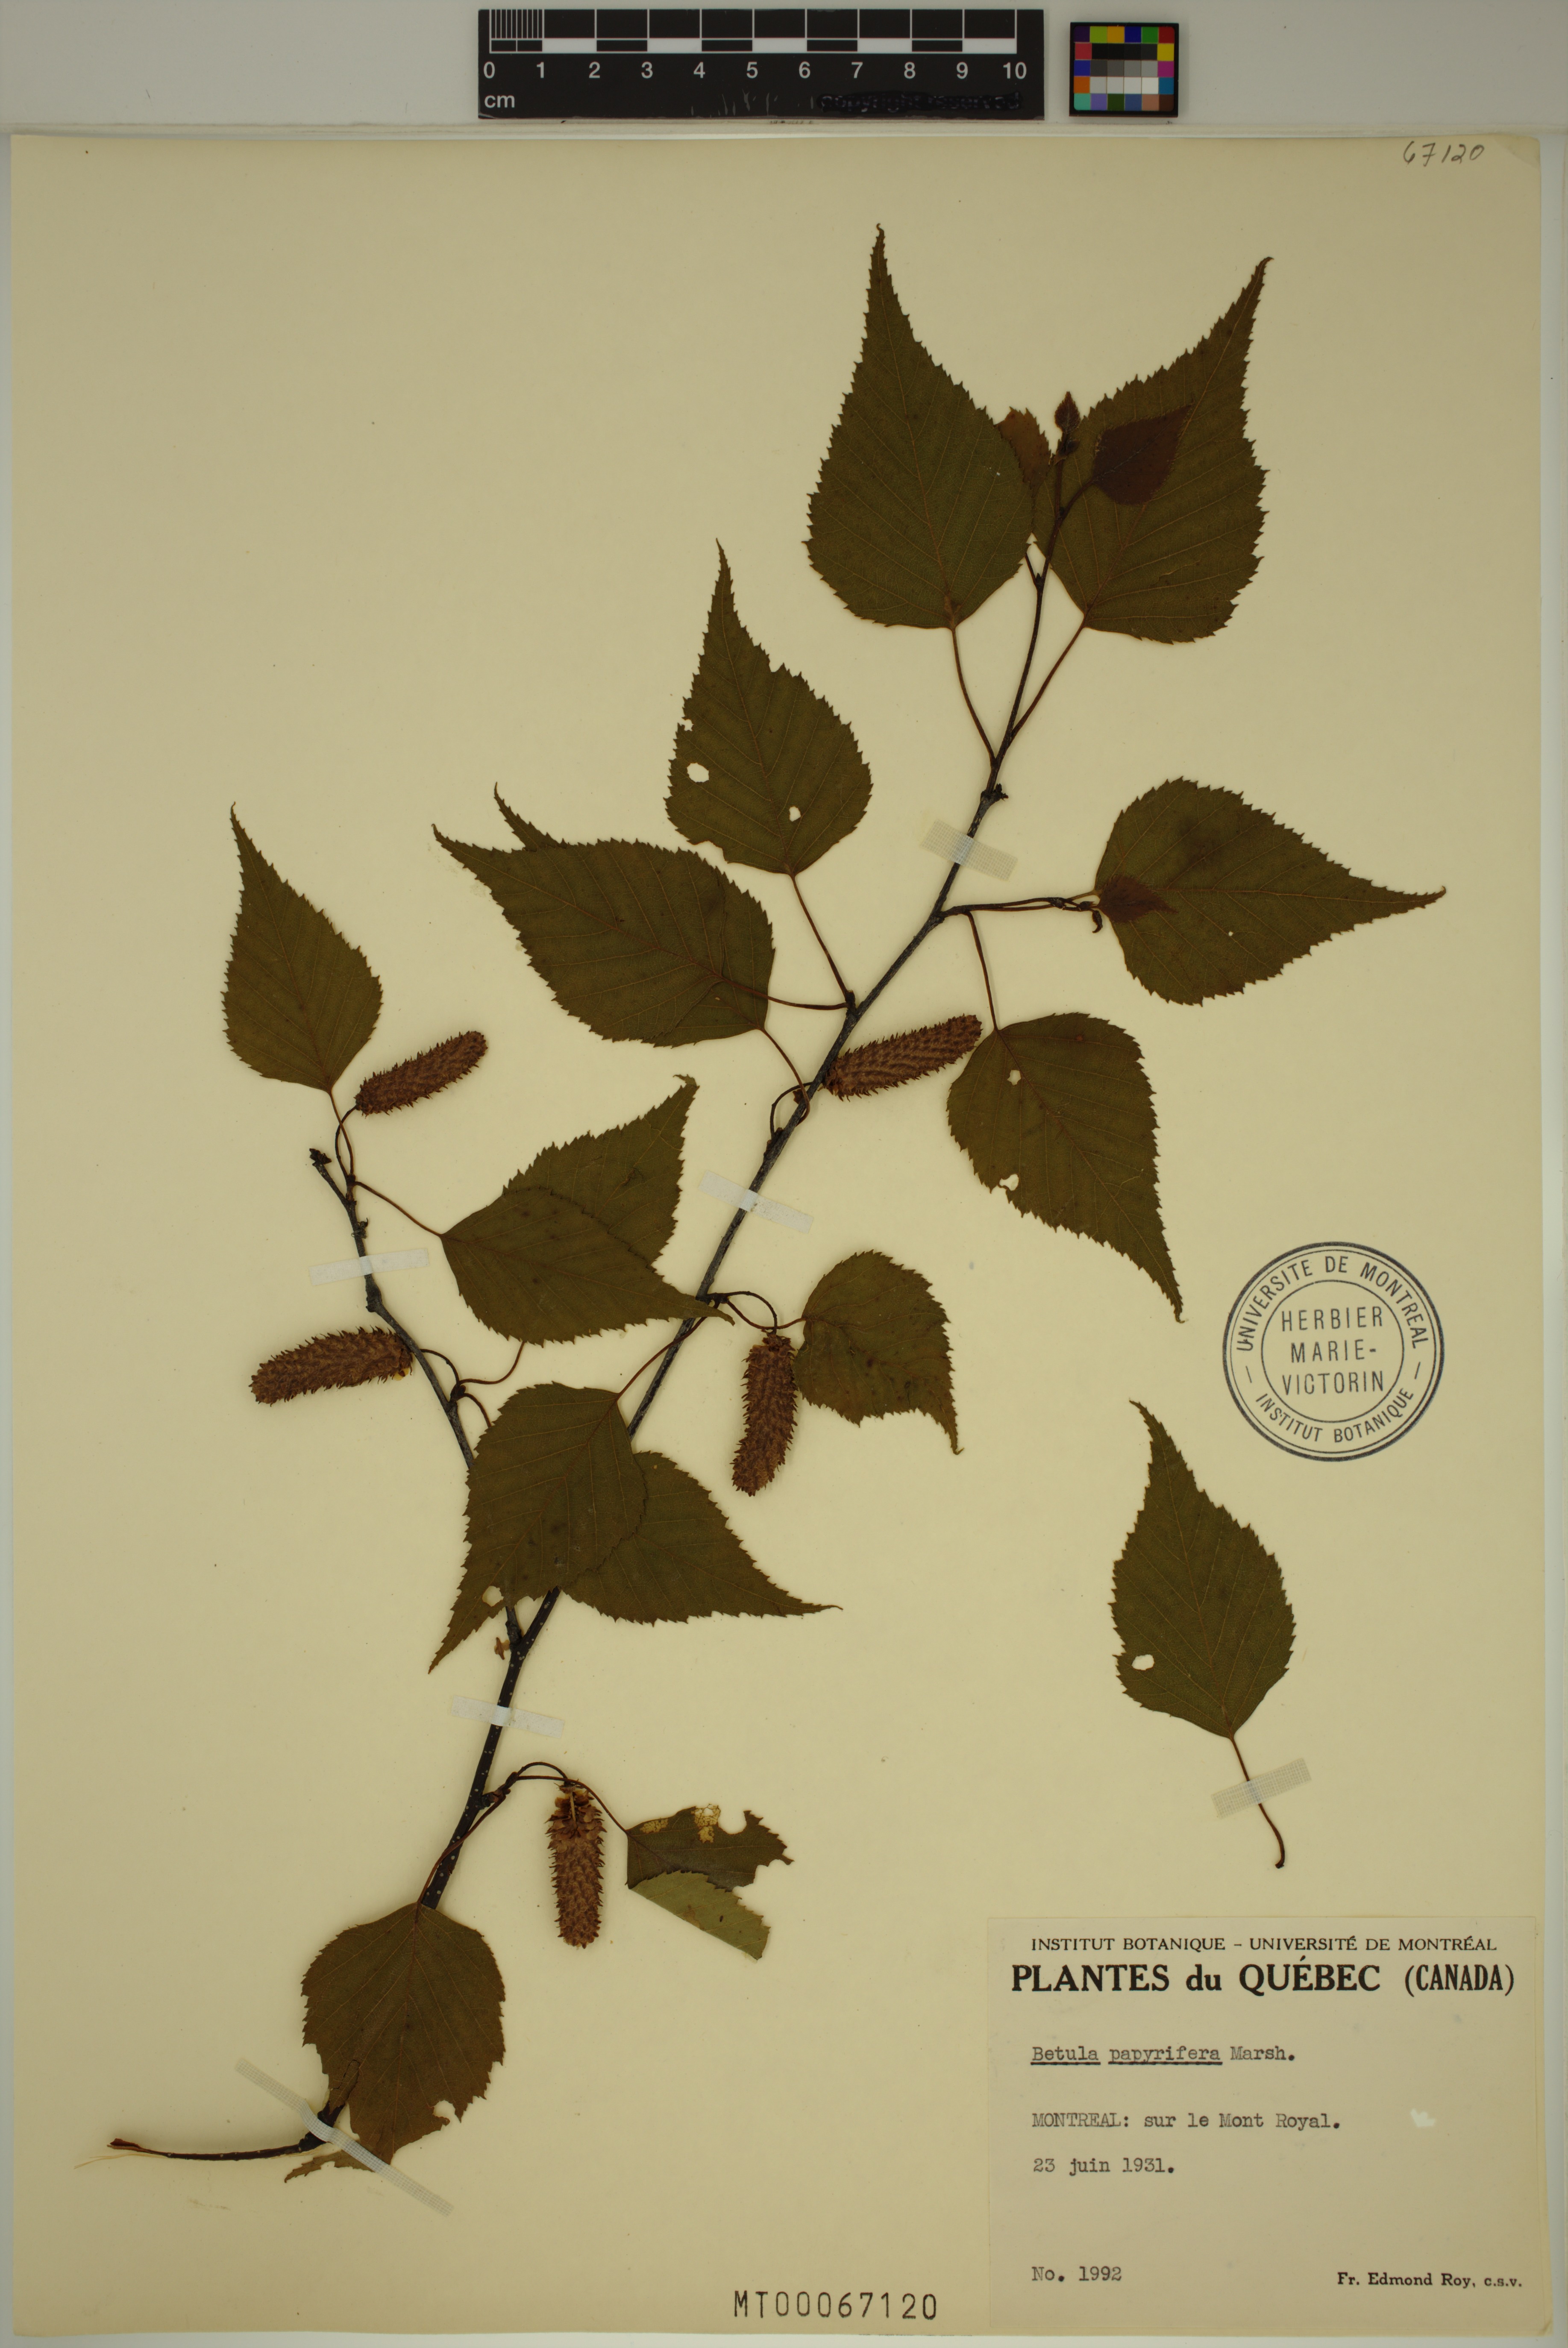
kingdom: Plantae
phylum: Tracheophyta
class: Magnoliopsida
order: Fagales
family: Betulaceae
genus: Betula
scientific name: Betula papyrifera
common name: Paper birch
